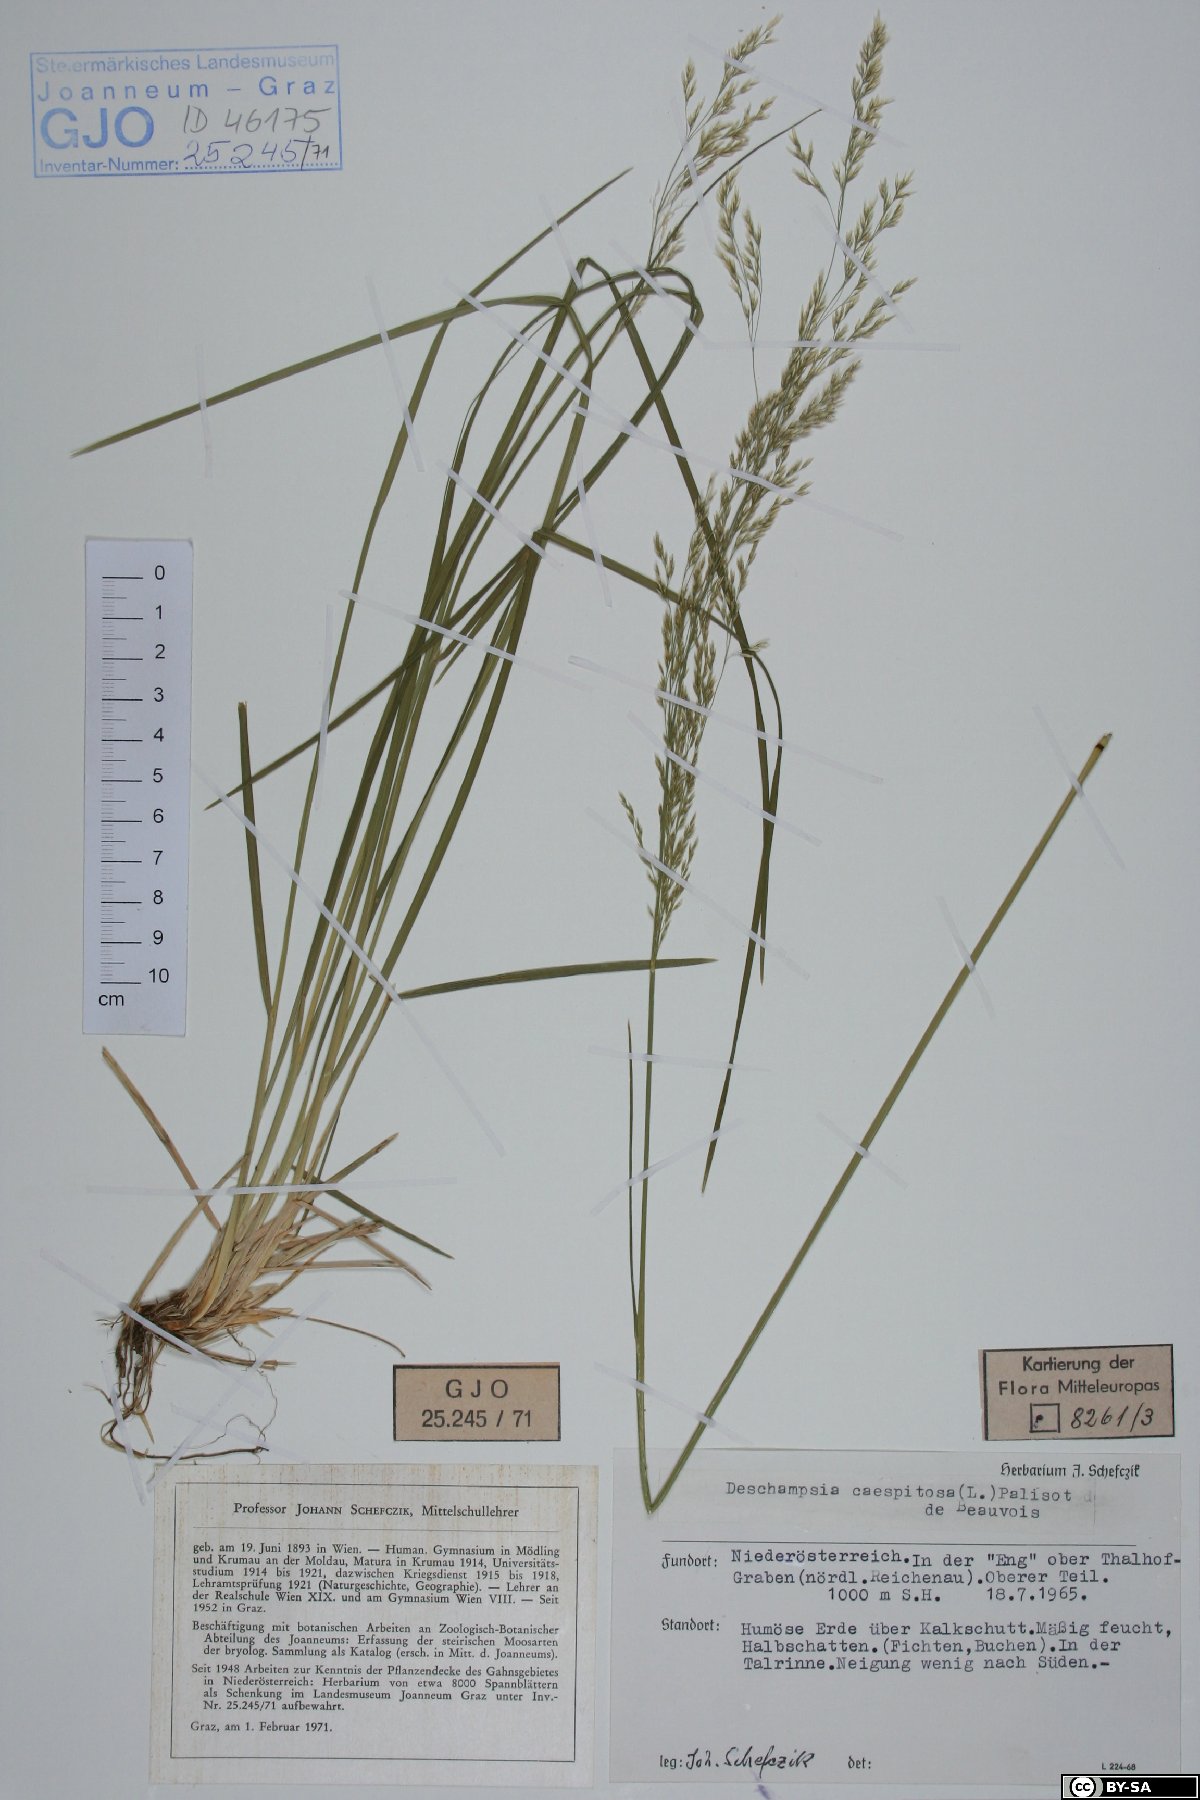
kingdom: Plantae
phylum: Tracheophyta
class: Liliopsida
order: Poales
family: Poaceae
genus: Deschampsia
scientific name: Deschampsia cespitosa
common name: Tufted hair-grass
